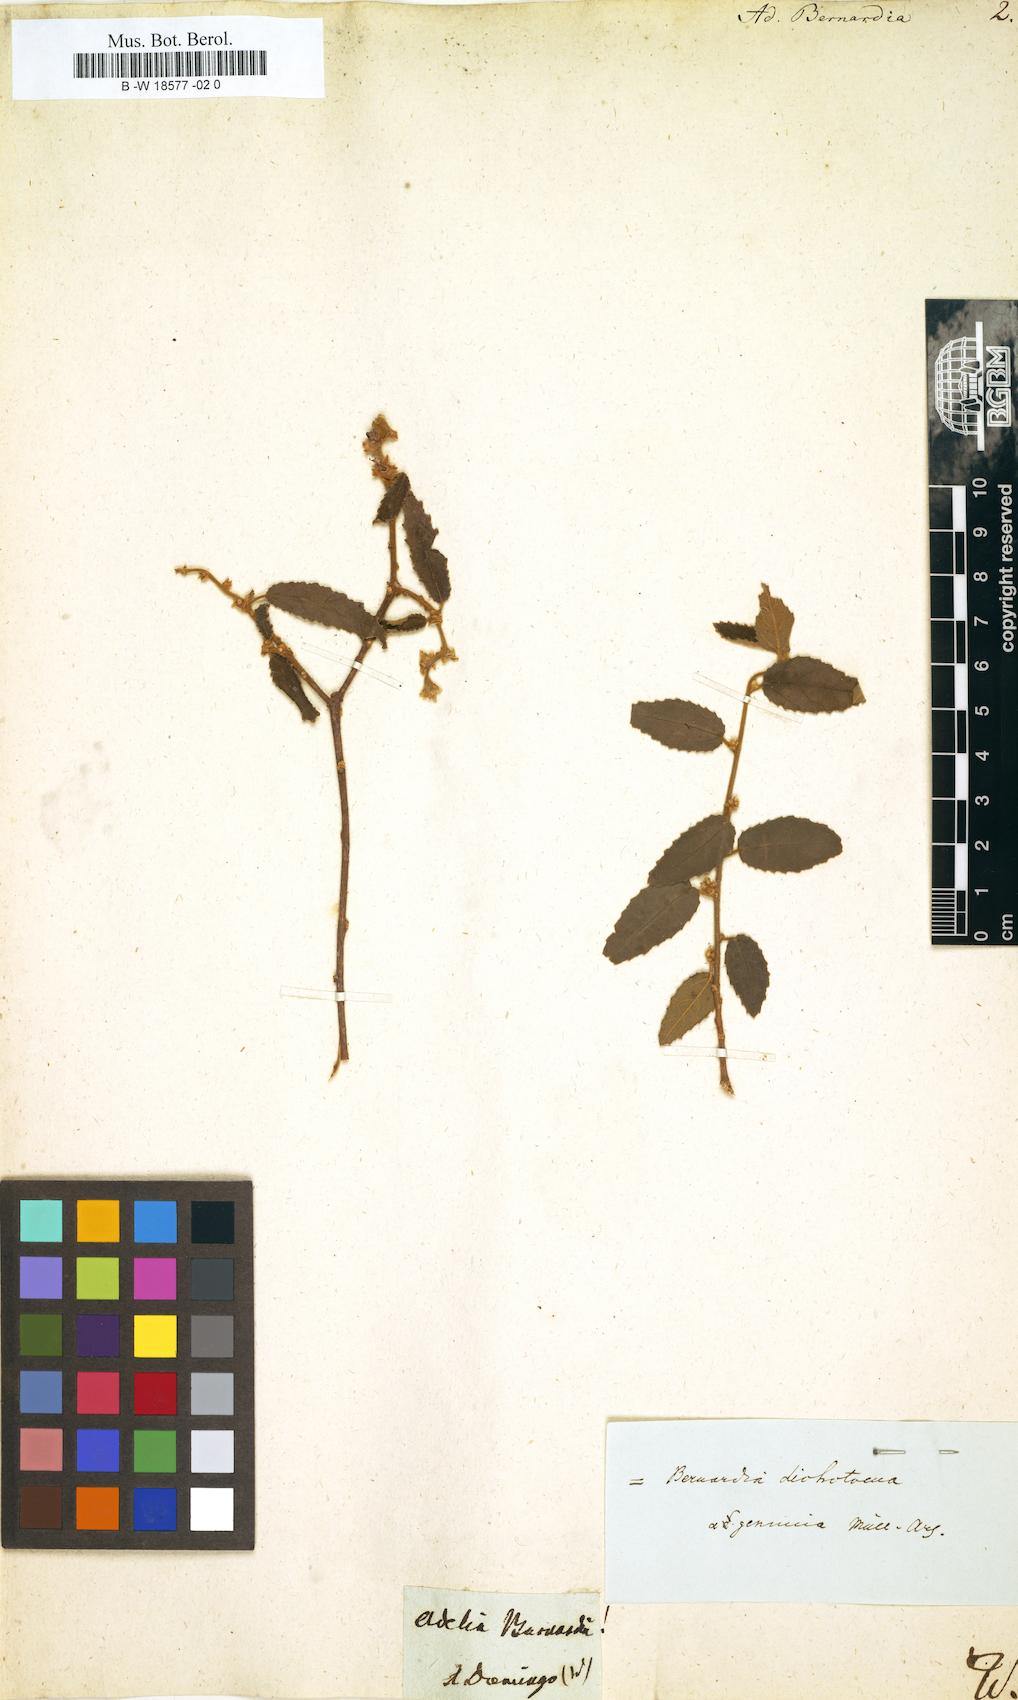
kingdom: Plantae
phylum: Tracheophyta
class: Magnoliopsida
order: Malpighiales
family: Euphorbiaceae
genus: Mallotus
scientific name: Mallotus mollissimus
